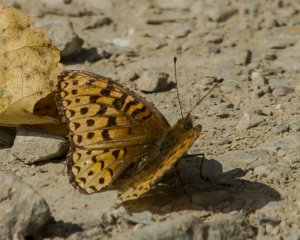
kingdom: Animalia
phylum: Arthropoda
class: Insecta
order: Lepidoptera
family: Nymphalidae
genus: Speyeria
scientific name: Speyeria atlantis
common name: Atlantis Fritillary
